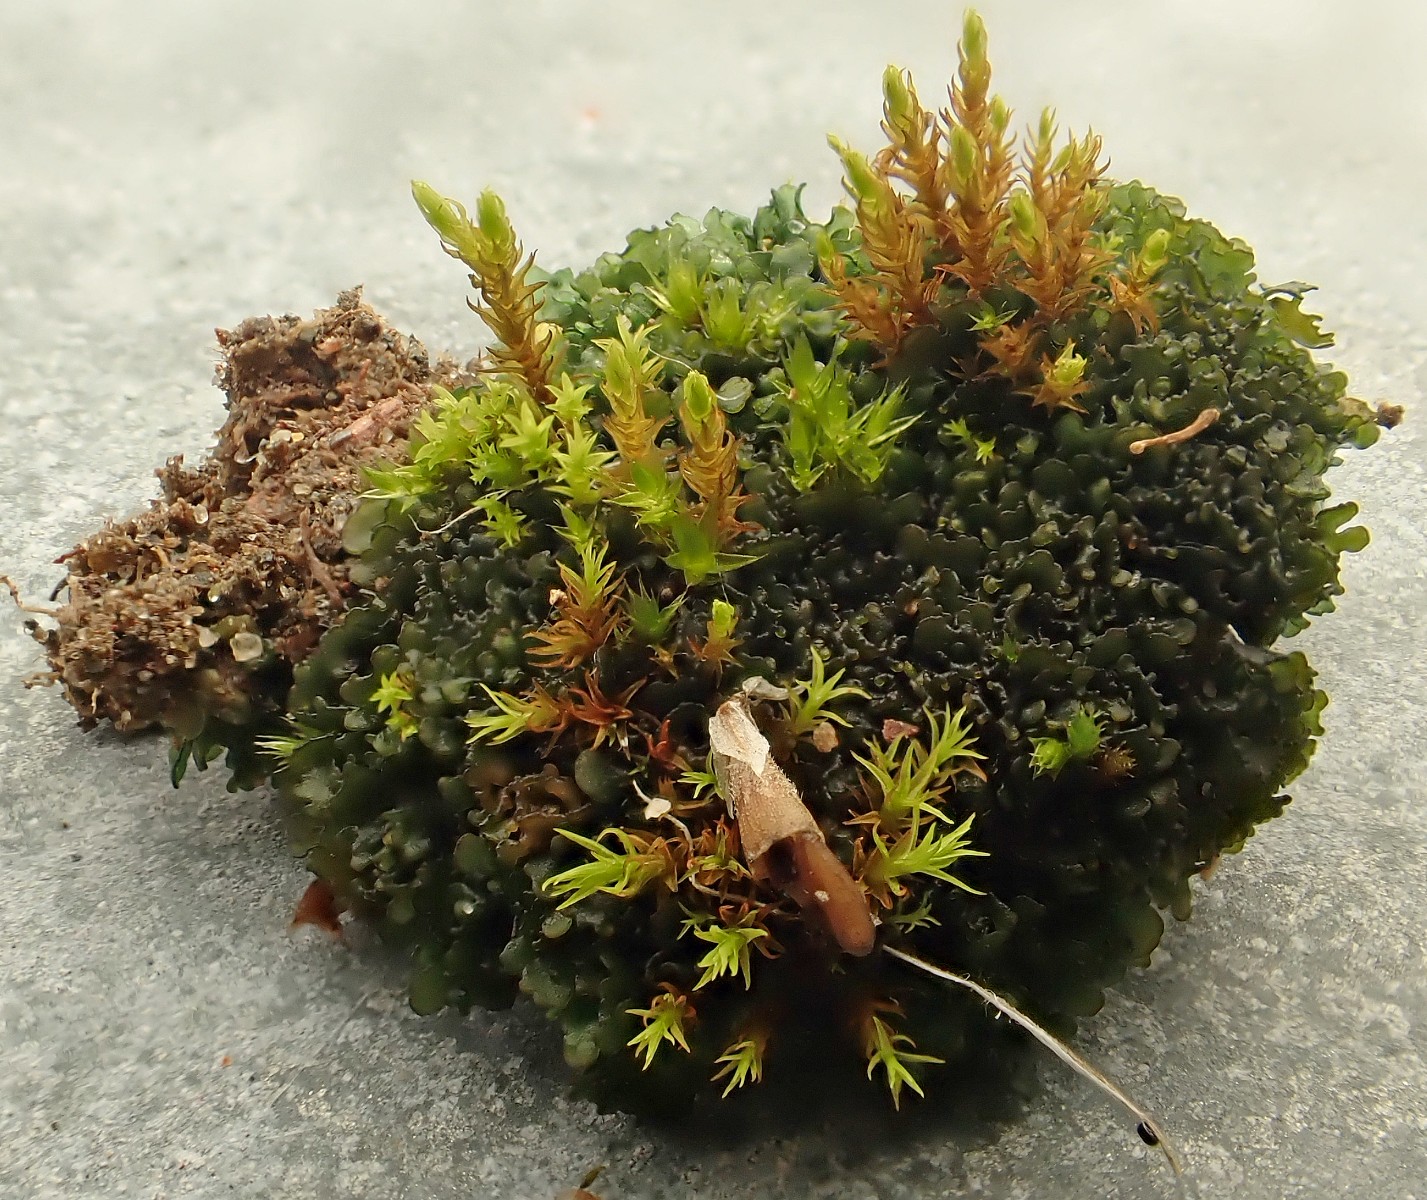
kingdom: Fungi
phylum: Ascomycota
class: Lecanoromycetes
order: Peltigerales
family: Collemataceae
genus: Blennothallia
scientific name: Blennothallia crispa
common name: kruset bævrelav
